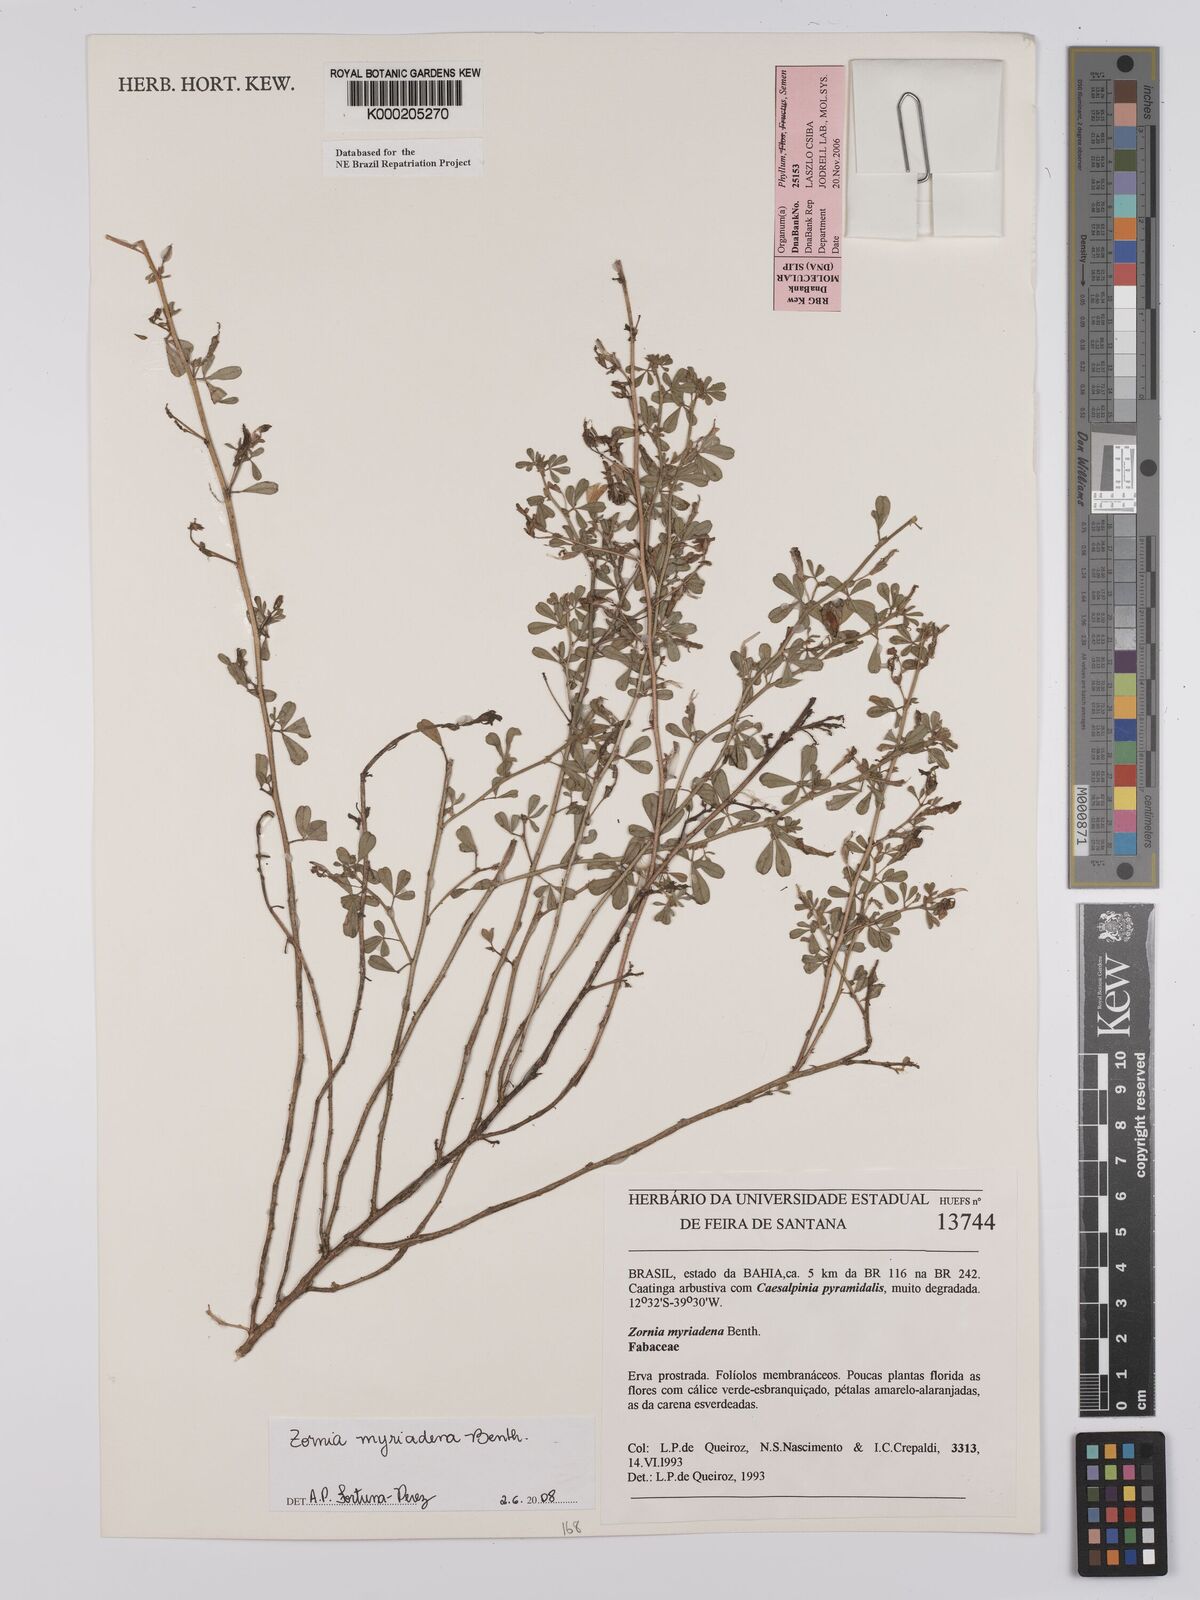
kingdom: Plantae
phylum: Tracheophyta
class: Magnoliopsida
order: Fabales
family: Fabaceae
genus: Zornia
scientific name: Zornia myriadena
